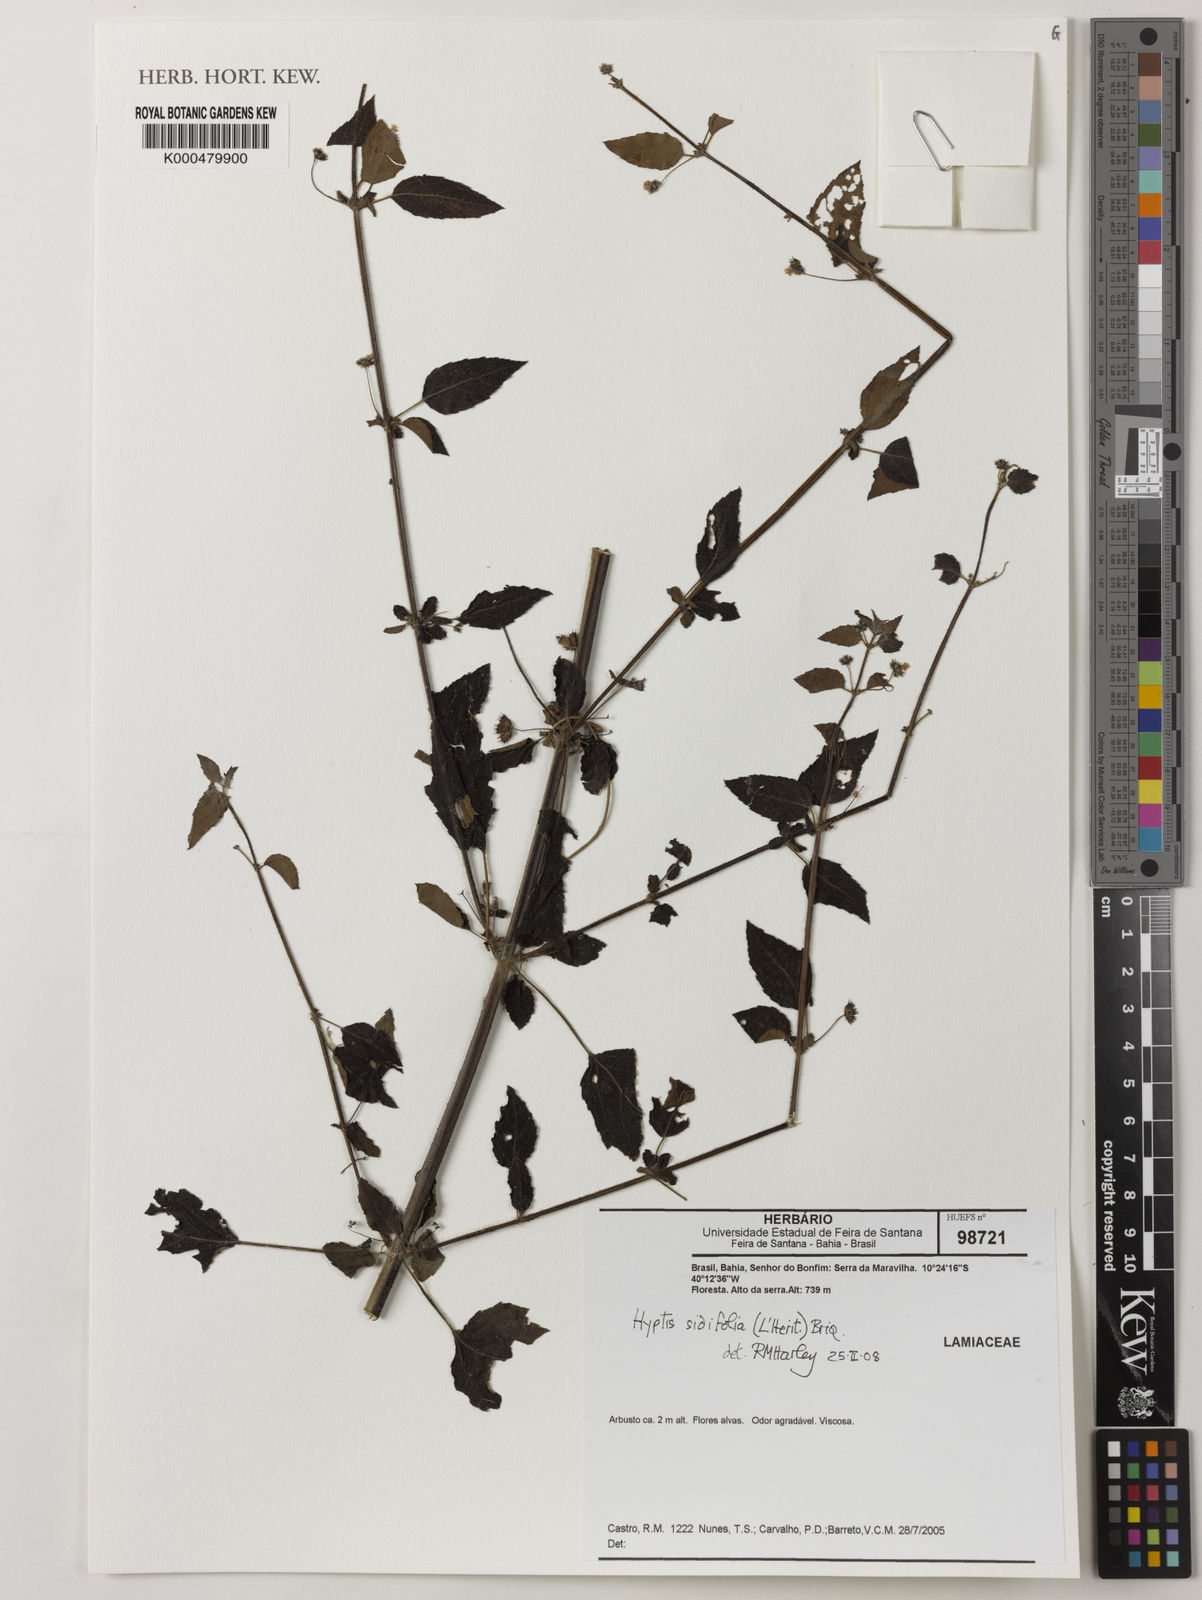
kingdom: Plantae
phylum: Tracheophyta
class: Magnoliopsida
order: Lamiales
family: Lamiaceae
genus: Mesosphaerum
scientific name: Mesosphaerum sidifolium
